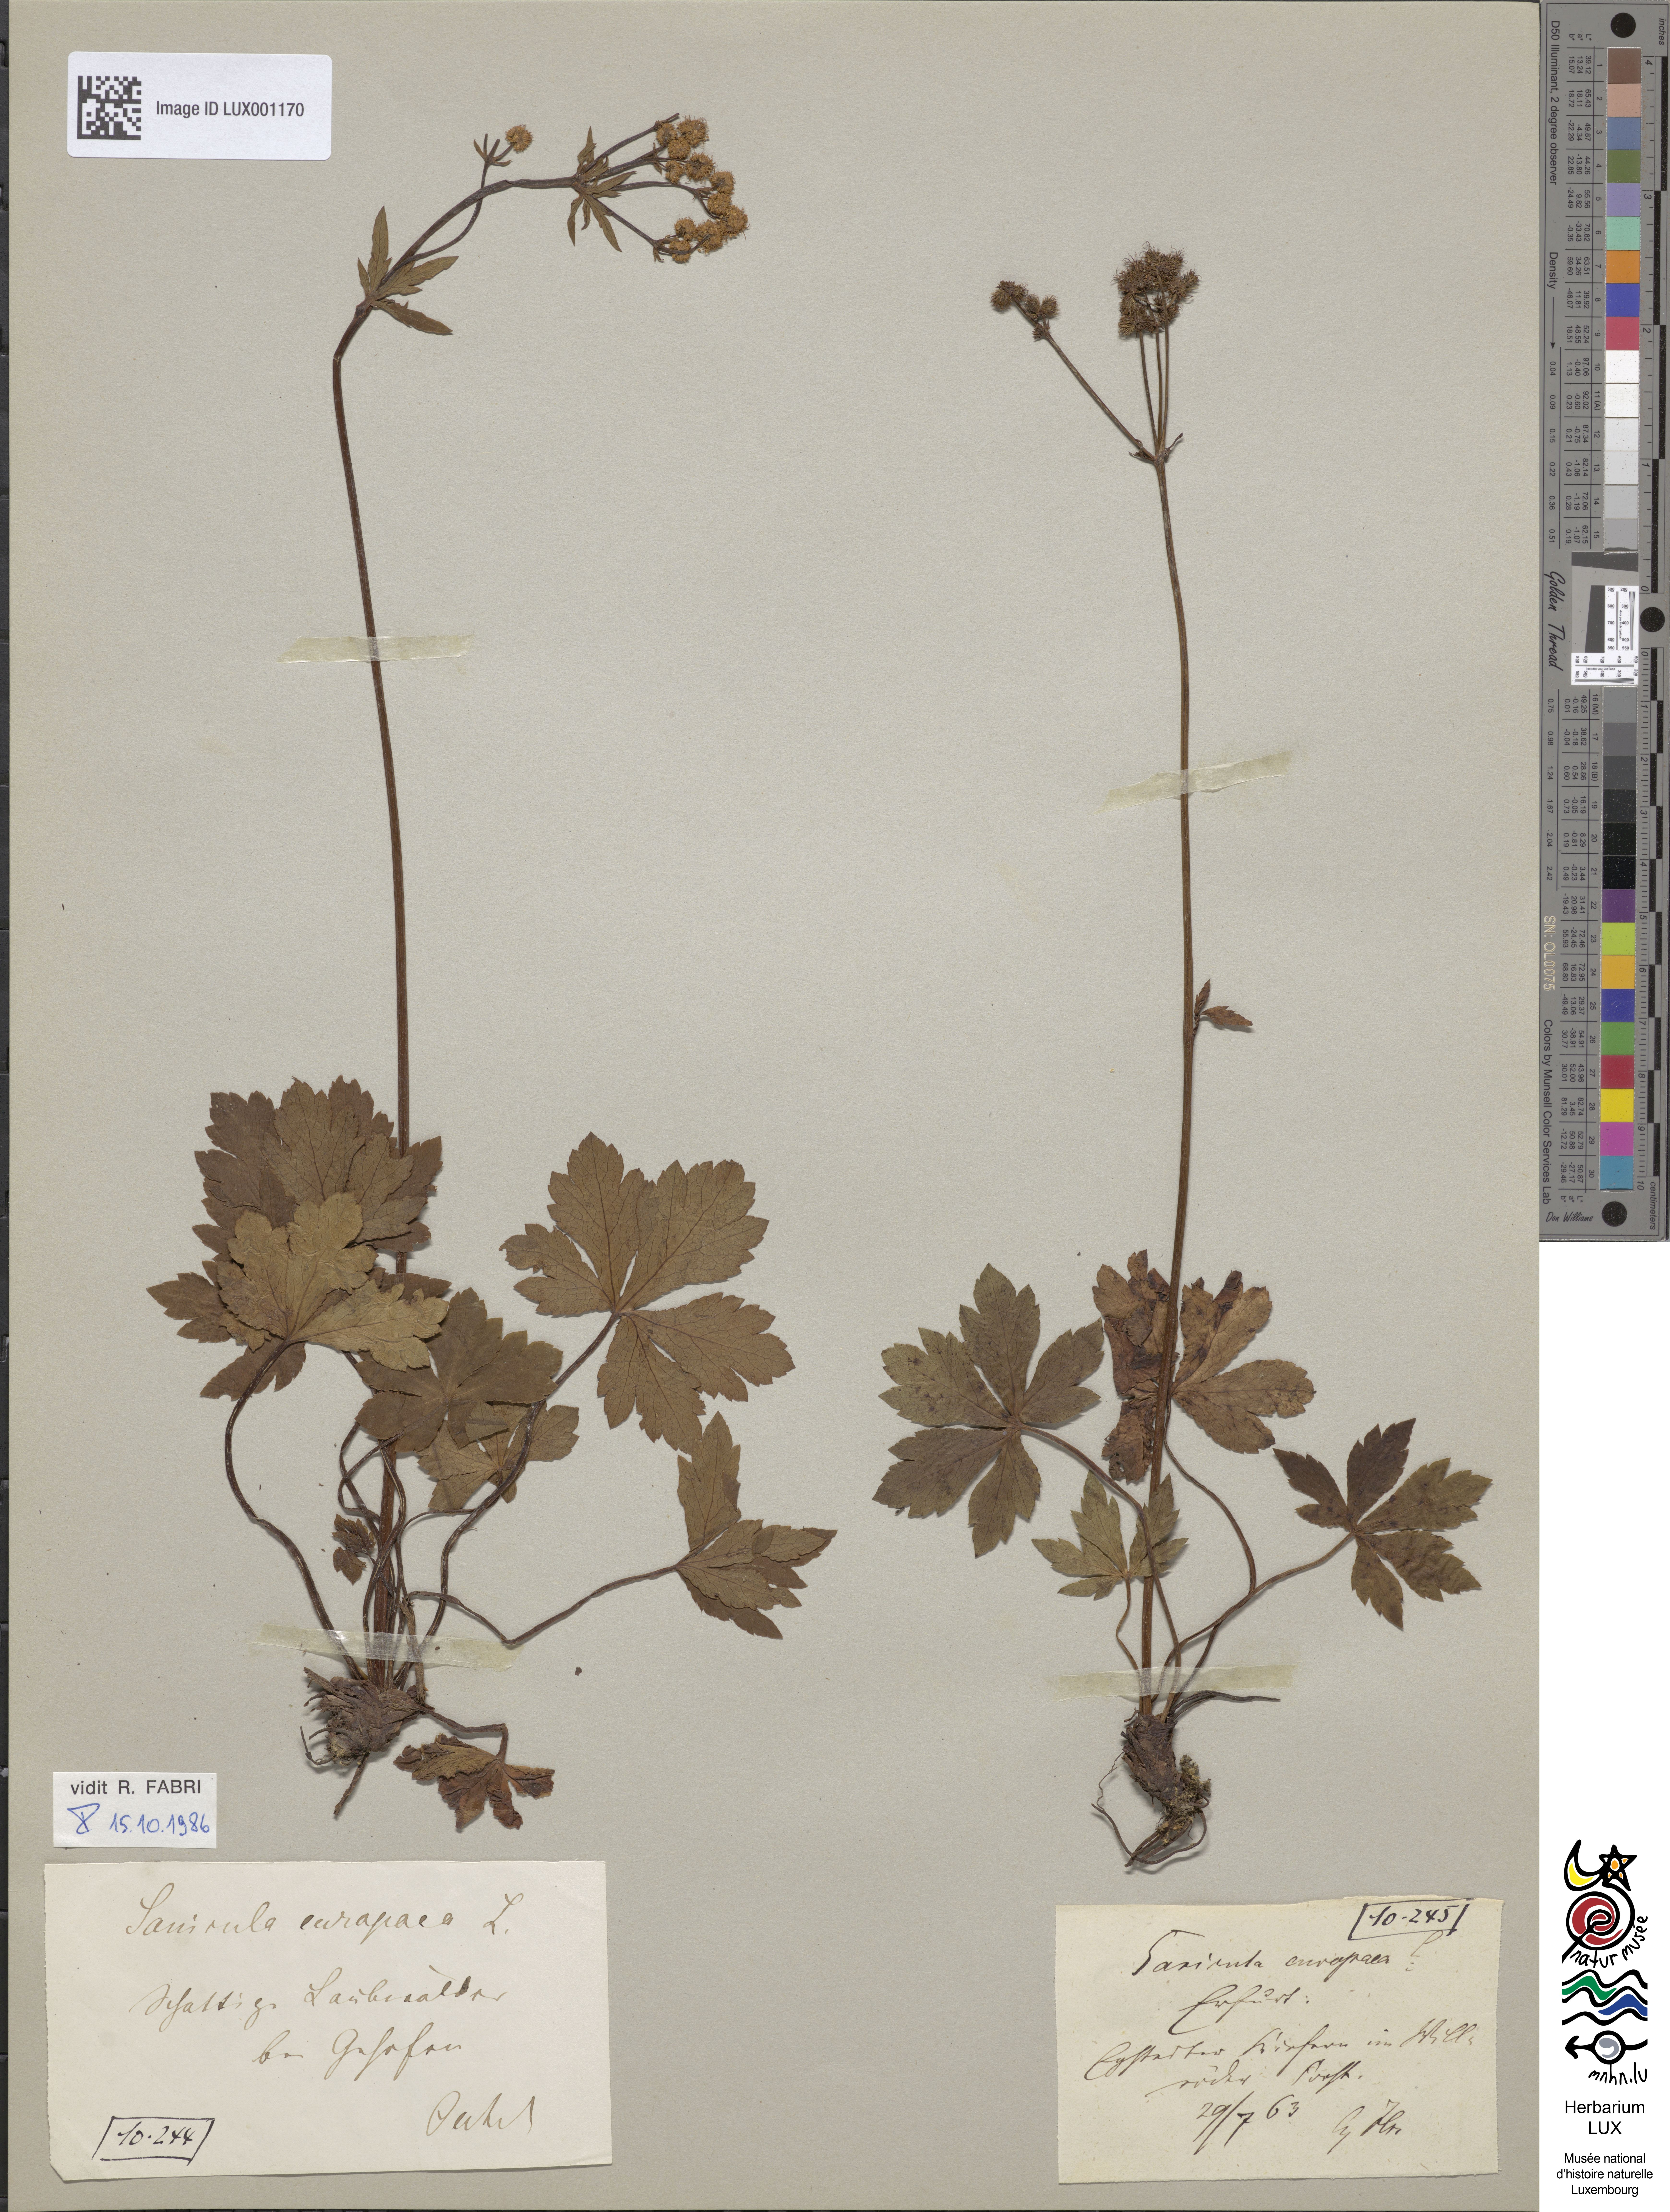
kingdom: Plantae
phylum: Tracheophyta
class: Magnoliopsida
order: Apiales
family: Apiaceae
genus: Sanicula
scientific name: Sanicula europaea
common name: Sanicle
